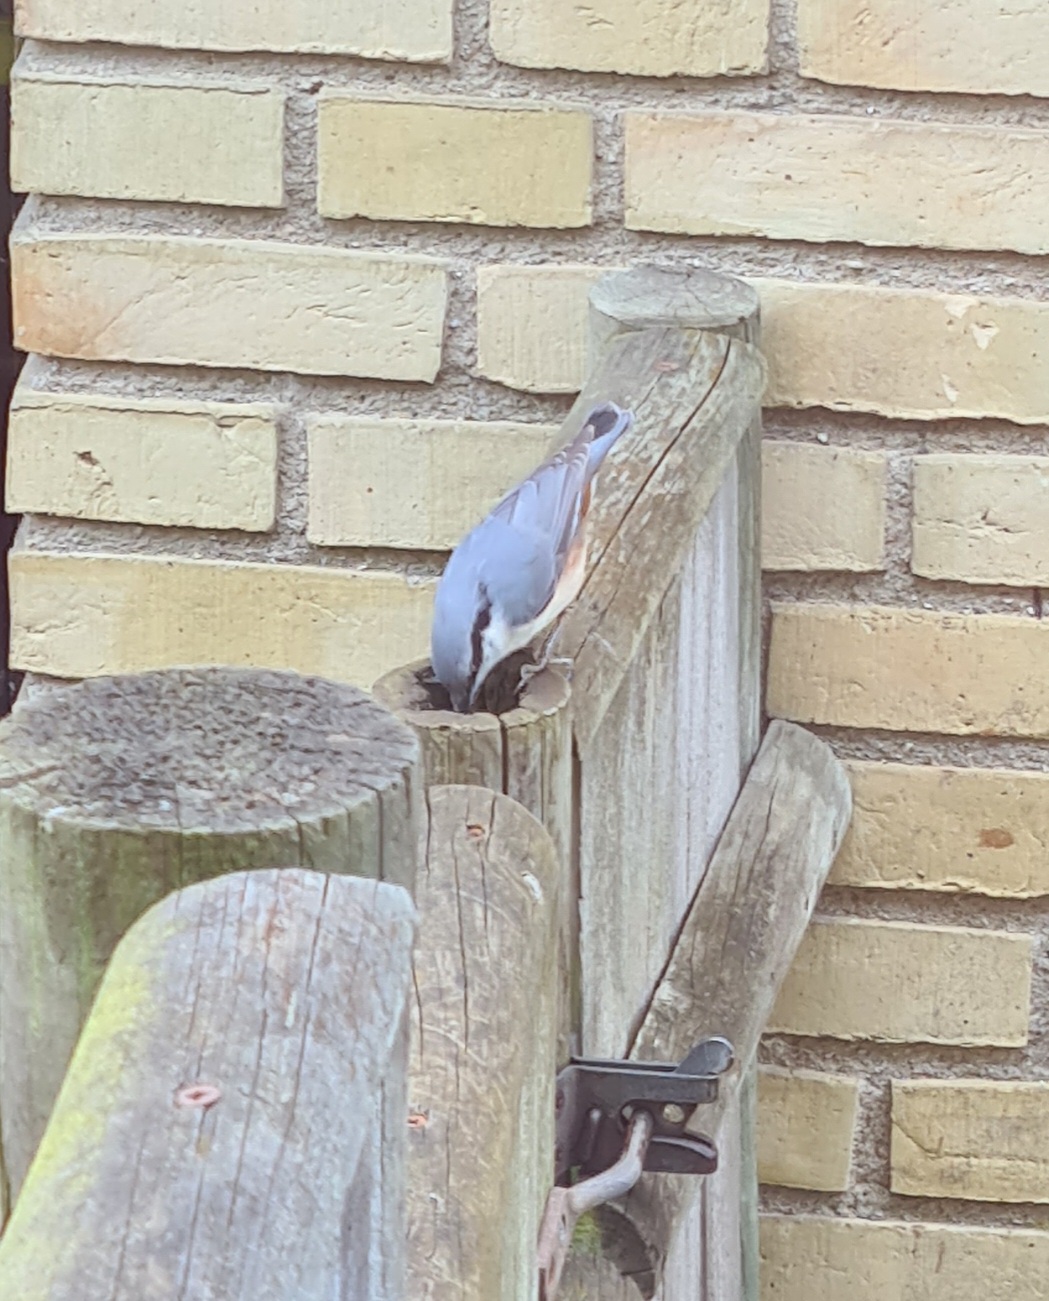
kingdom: Animalia
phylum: Chordata
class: Aves
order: Passeriformes
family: Sittidae
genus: Sitta
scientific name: Sitta europaea
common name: Spætmejse
